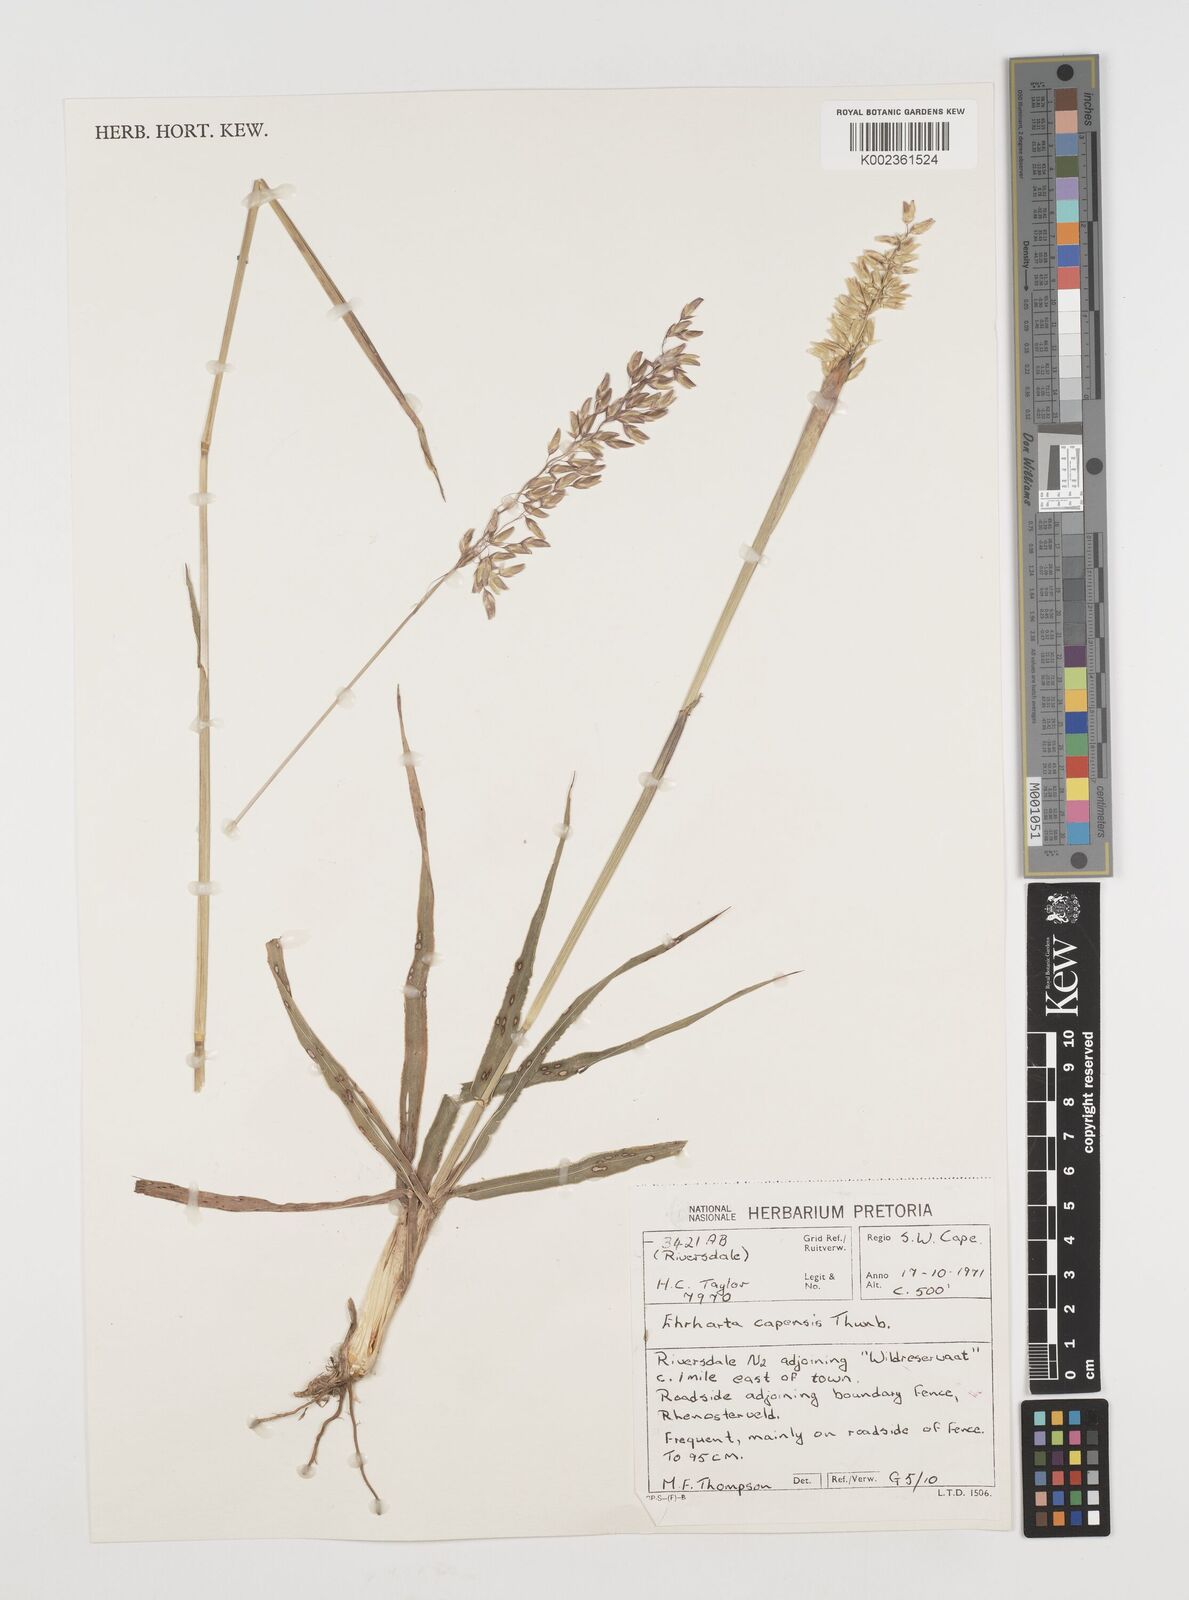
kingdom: Plantae
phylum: Tracheophyta
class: Liliopsida
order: Poales
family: Poaceae
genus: Ehrharta
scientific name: Ehrharta capensis
